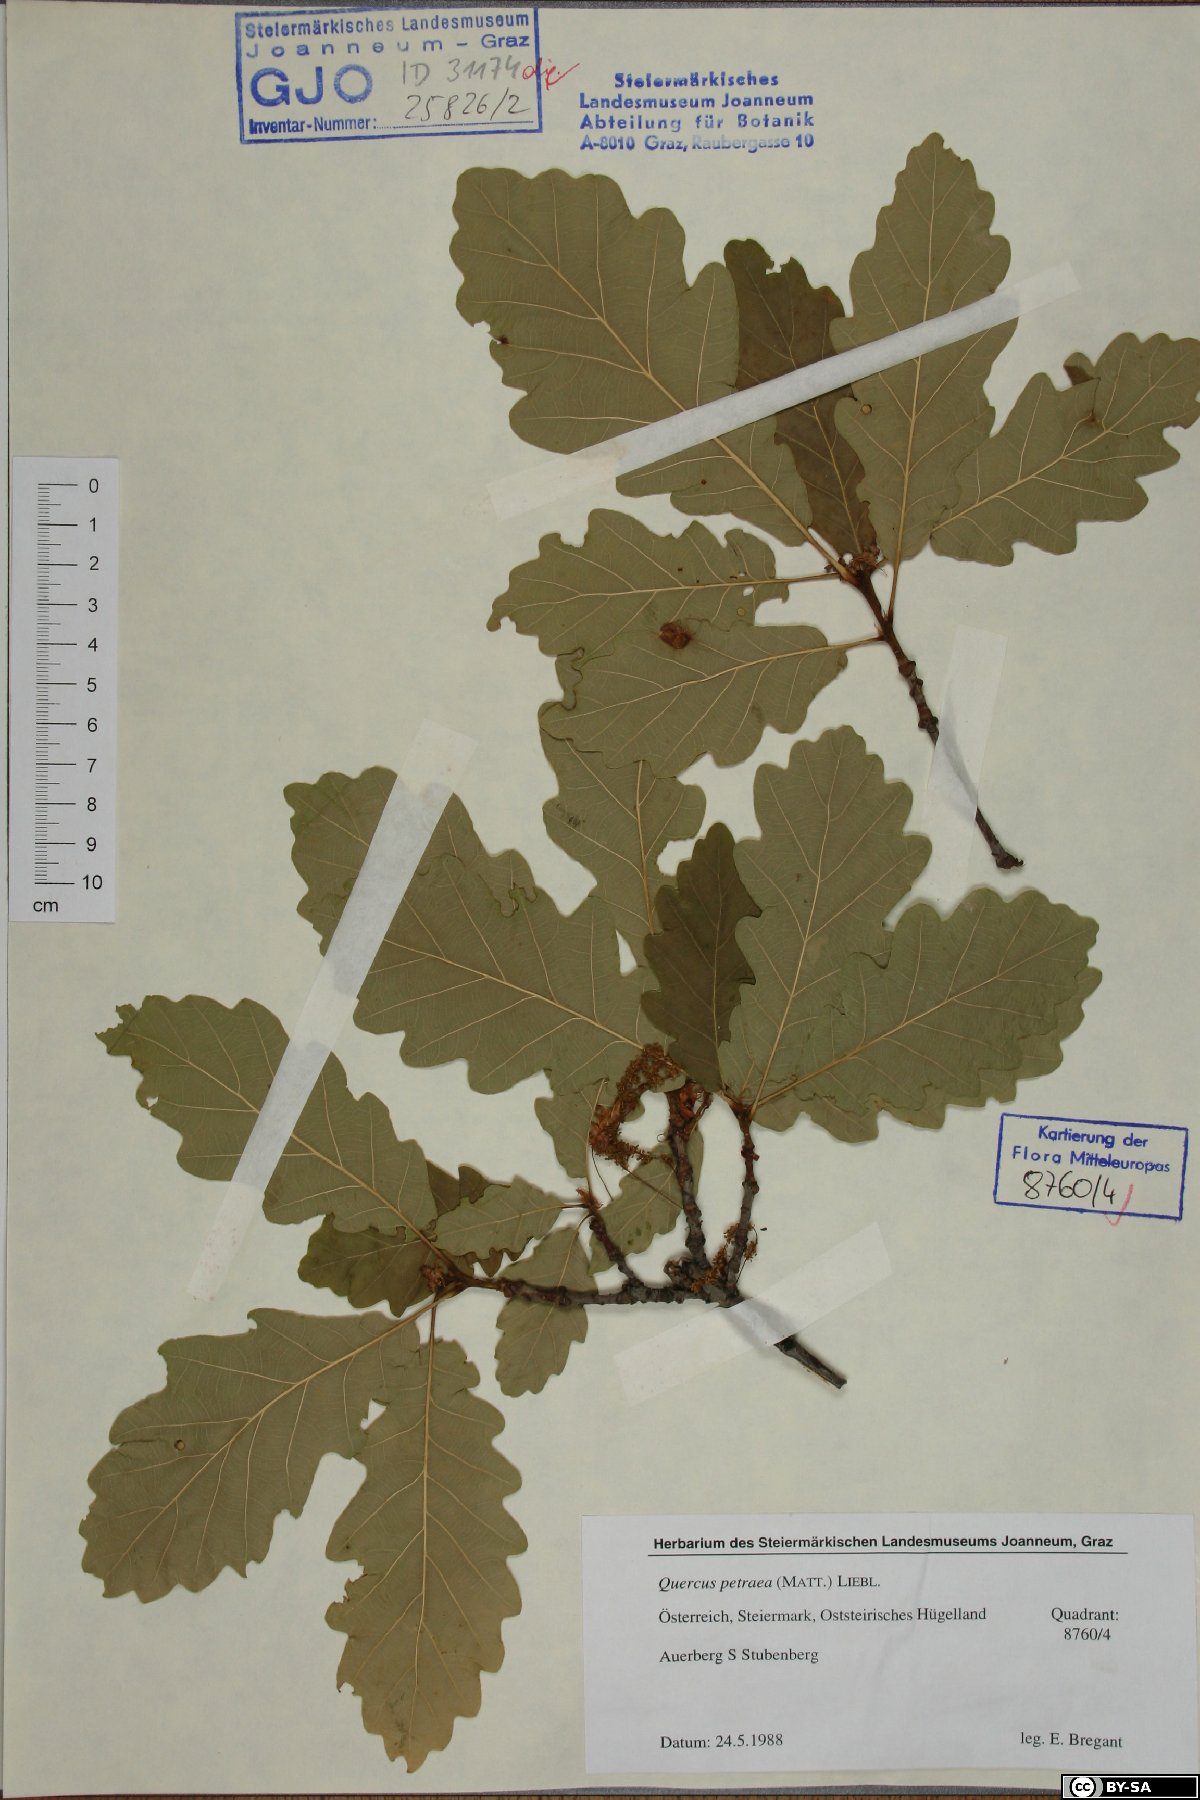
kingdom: Plantae
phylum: Tracheophyta
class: Magnoliopsida
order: Fagales
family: Fagaceae
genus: Quercus
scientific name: Quercus petraea
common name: Sessile oak
